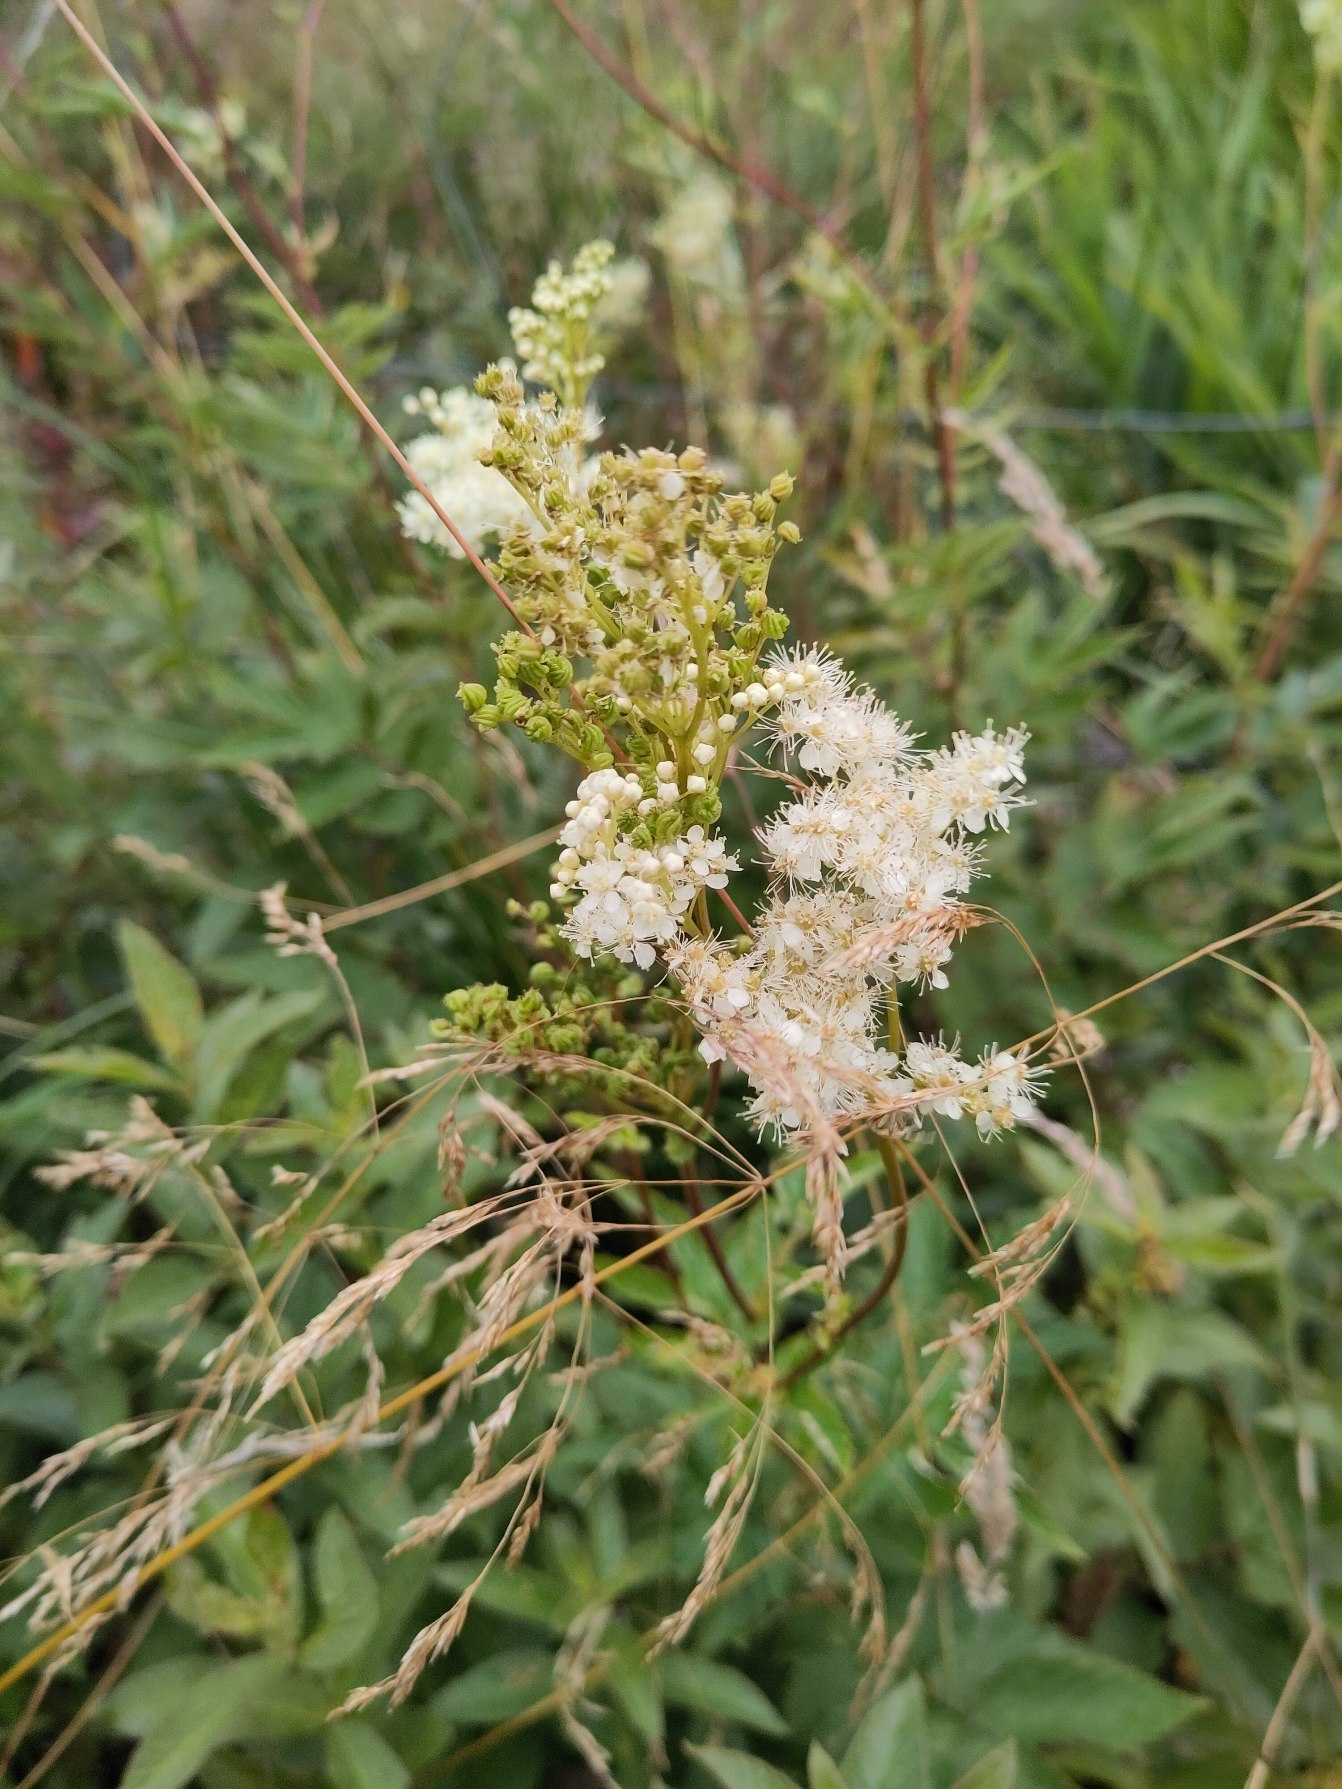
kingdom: Plantae
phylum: Tracheophyta
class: Magnoliopsida
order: Rosales
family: Rosaceae
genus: Filipendula
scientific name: Filipendula ulmaria
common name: Almindelig mjødurt
